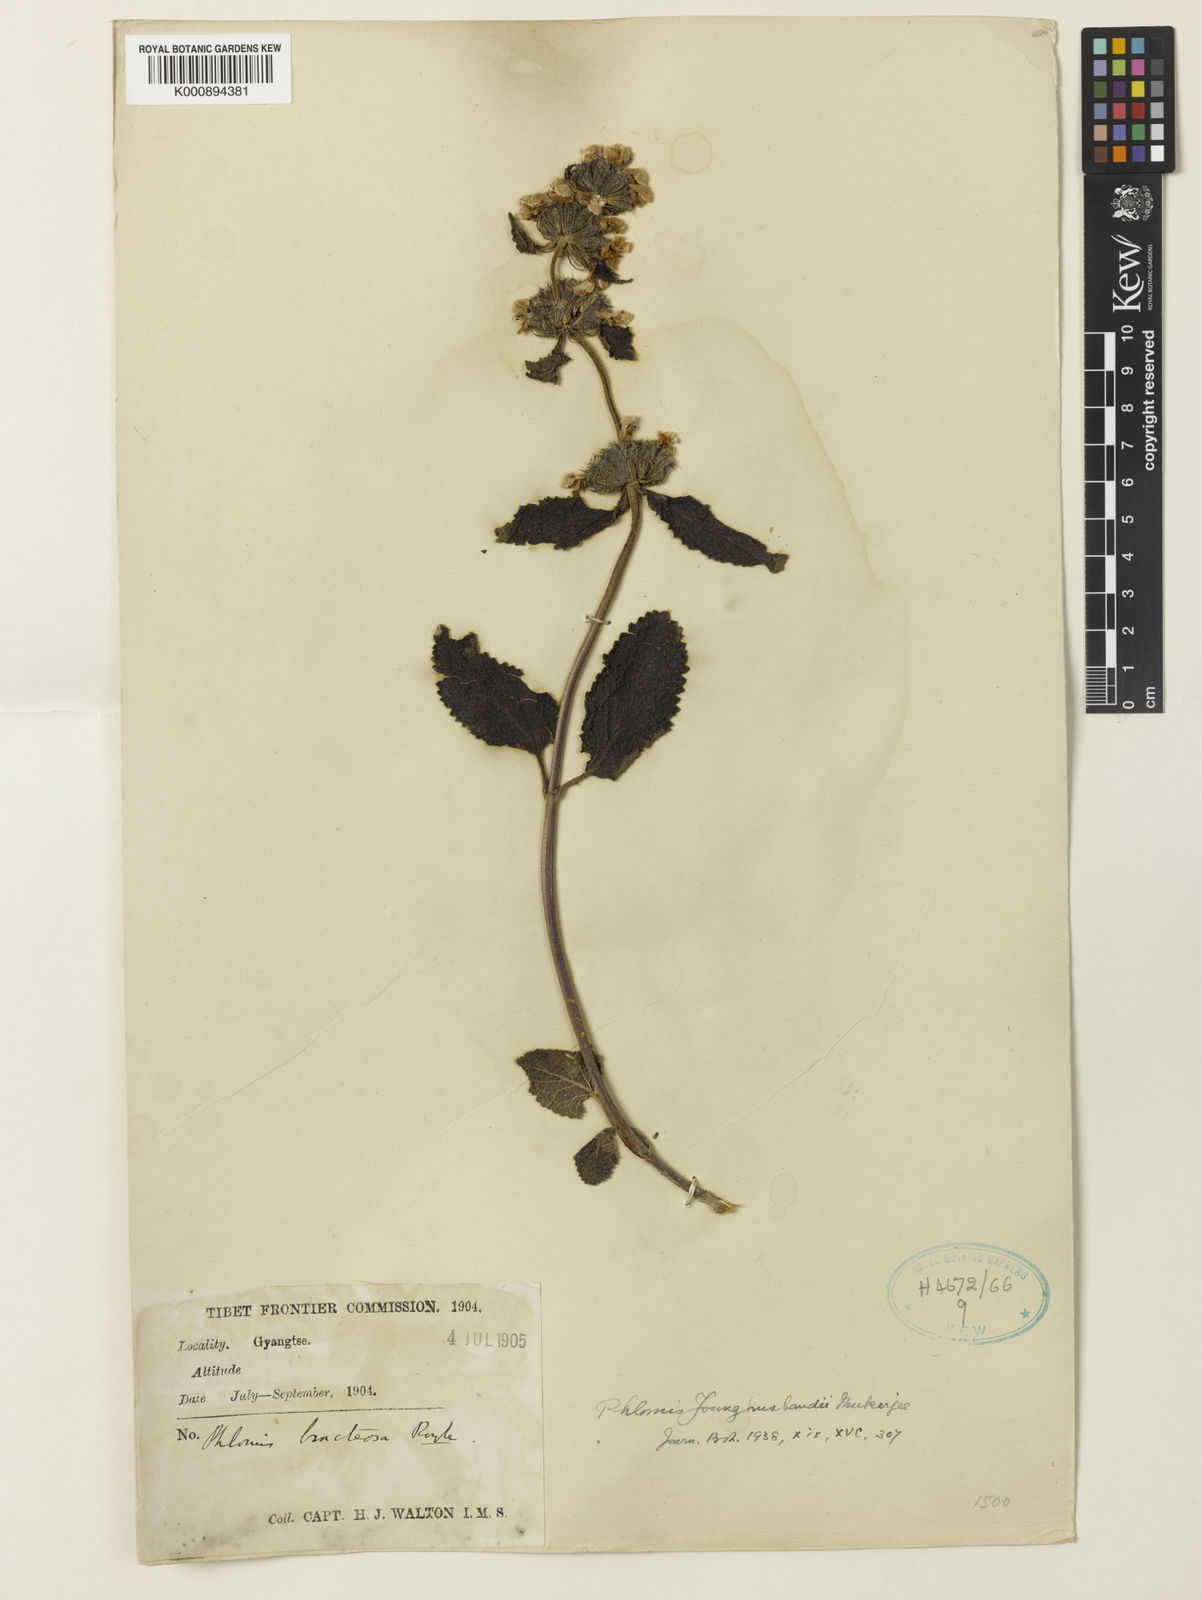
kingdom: Plantae
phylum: Tracheophyta
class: Magnoliopsida
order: Lamiales
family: Lamiaceae
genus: Phlomis
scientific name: Phlomis
